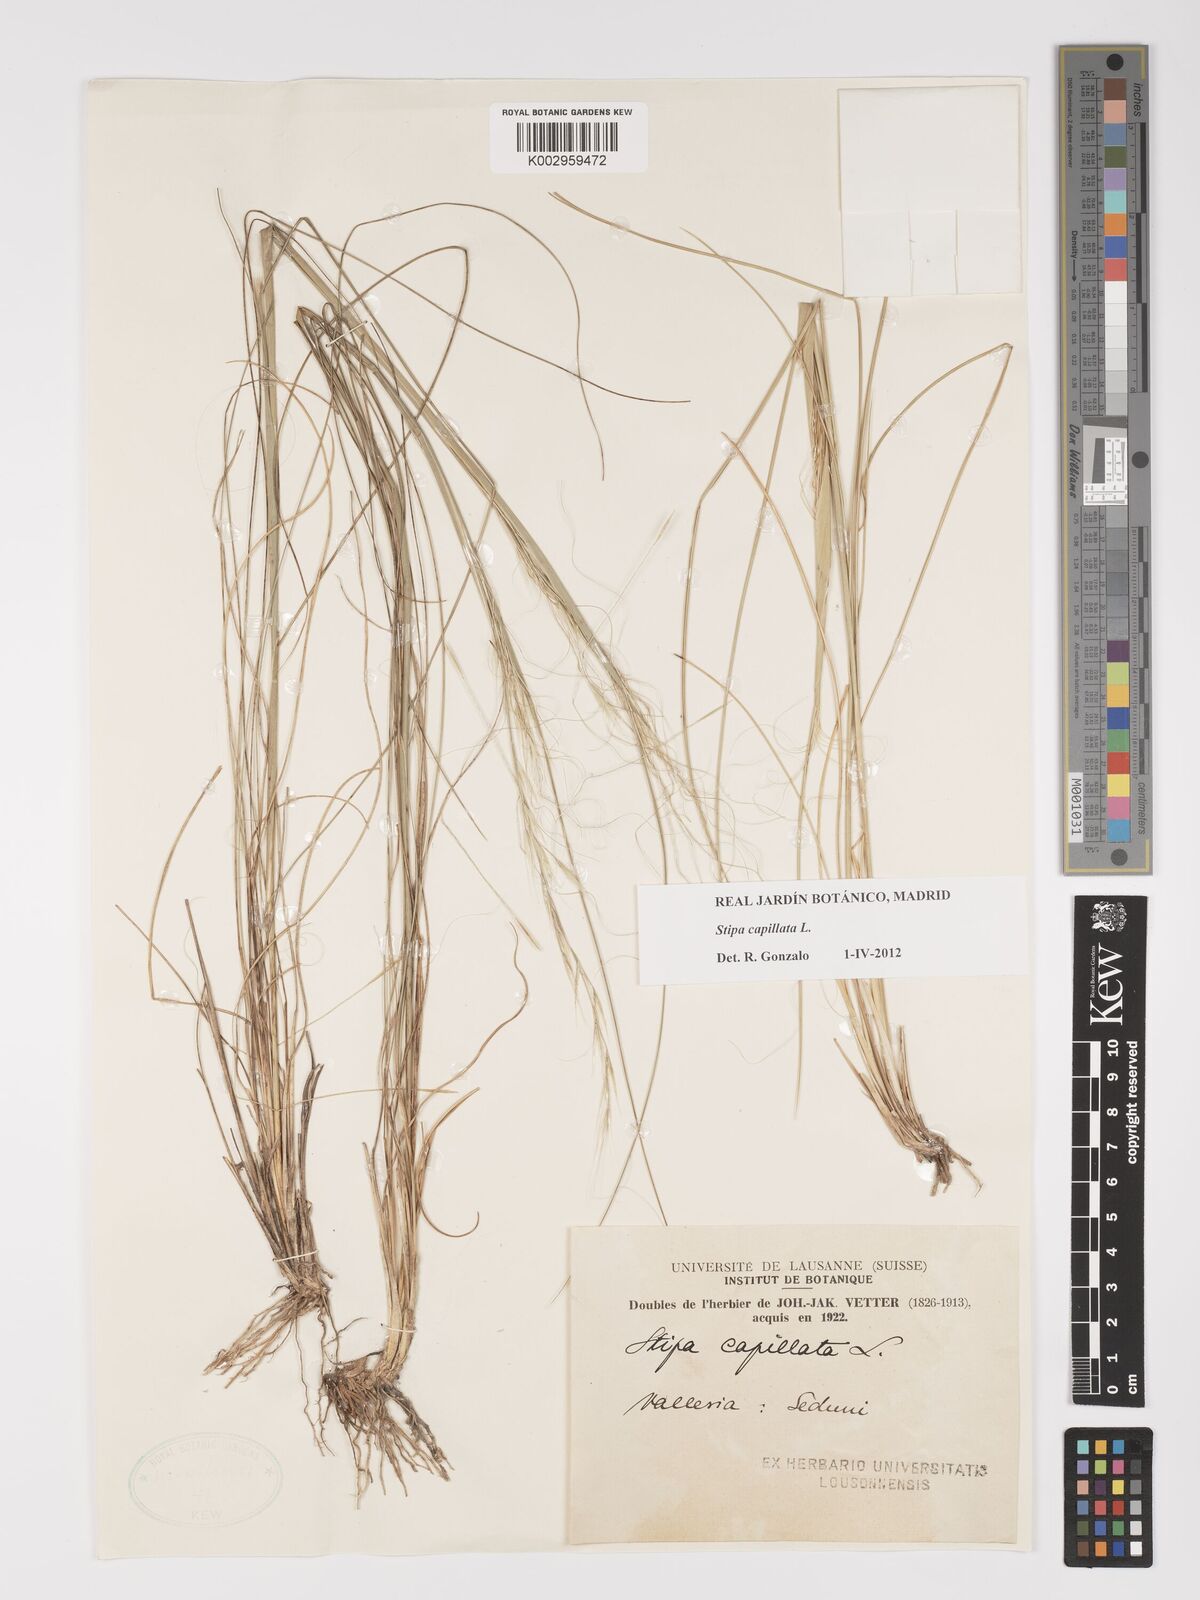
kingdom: Plantae
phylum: Tracheophyta
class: Liliopsida
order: Poales
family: Poaceae
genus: Stipa
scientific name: Stipa capillata
